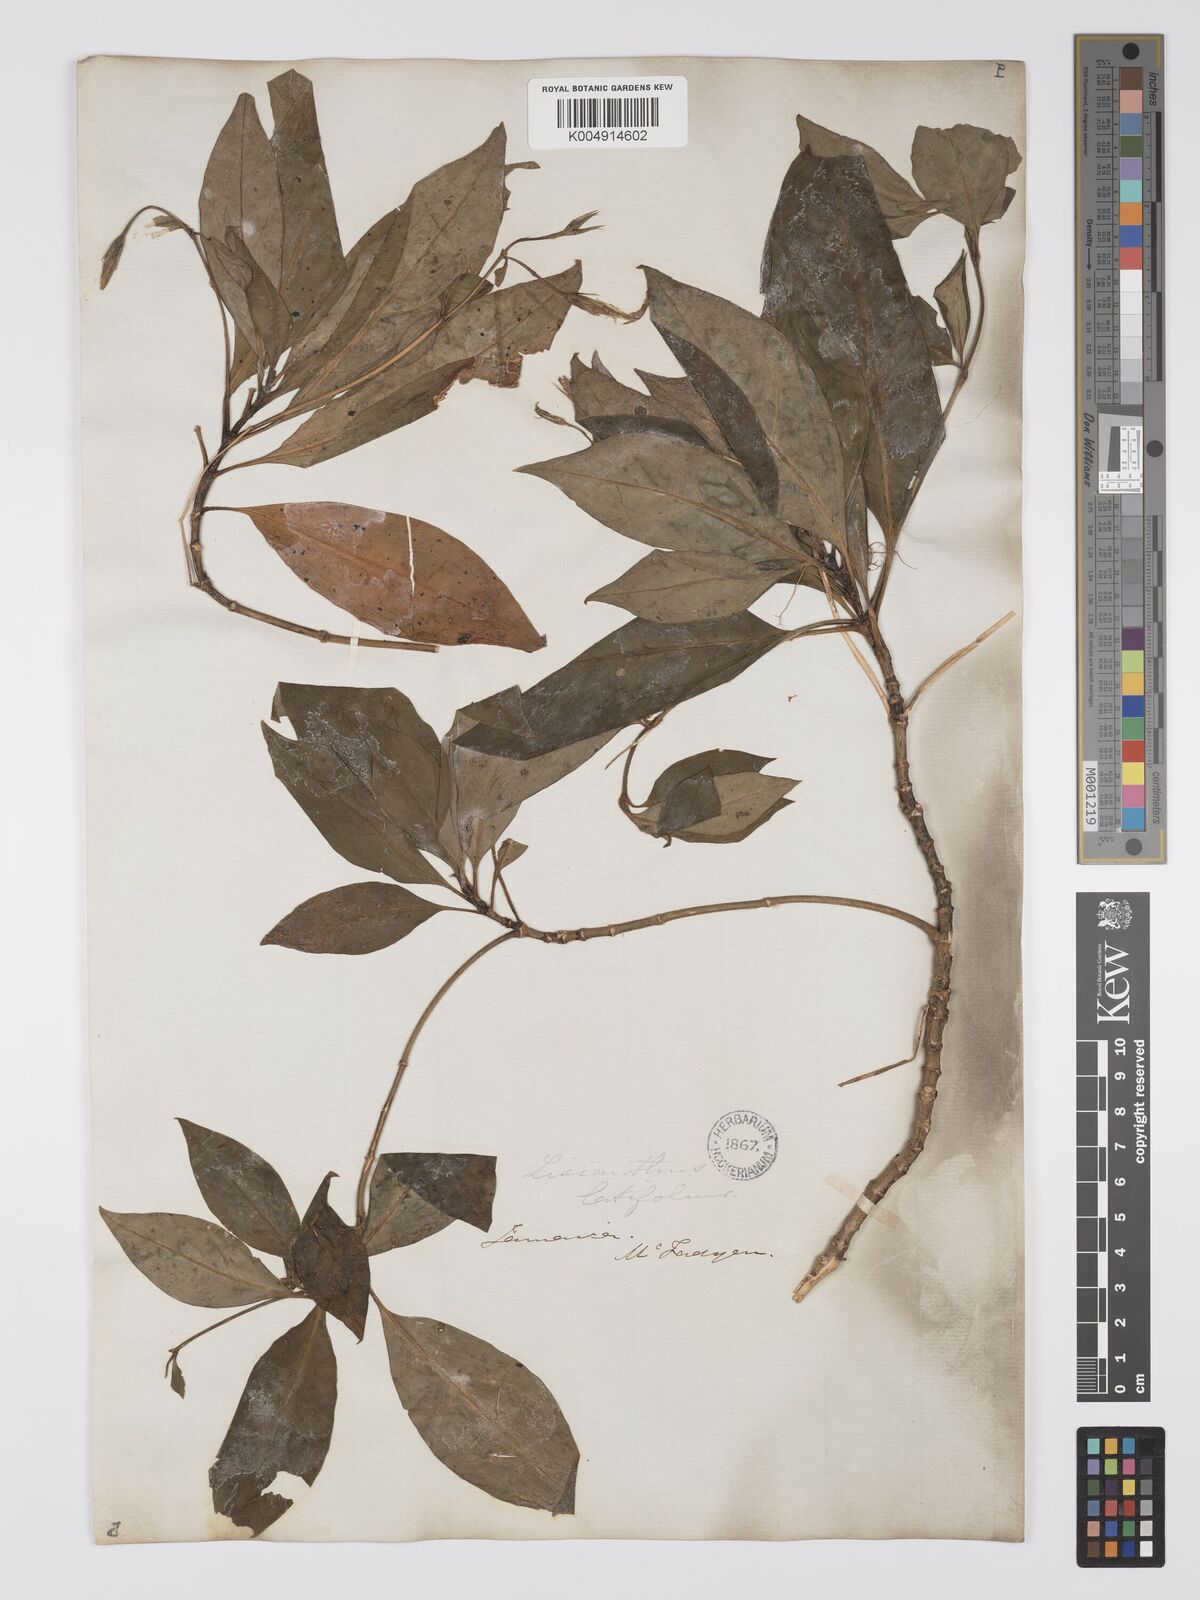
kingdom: Plantae
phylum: Tracheophyta
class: Magnoliopsida
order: Gentianales
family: Gentianaceae
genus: Lisianthus
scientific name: Lisianthus latifolius
